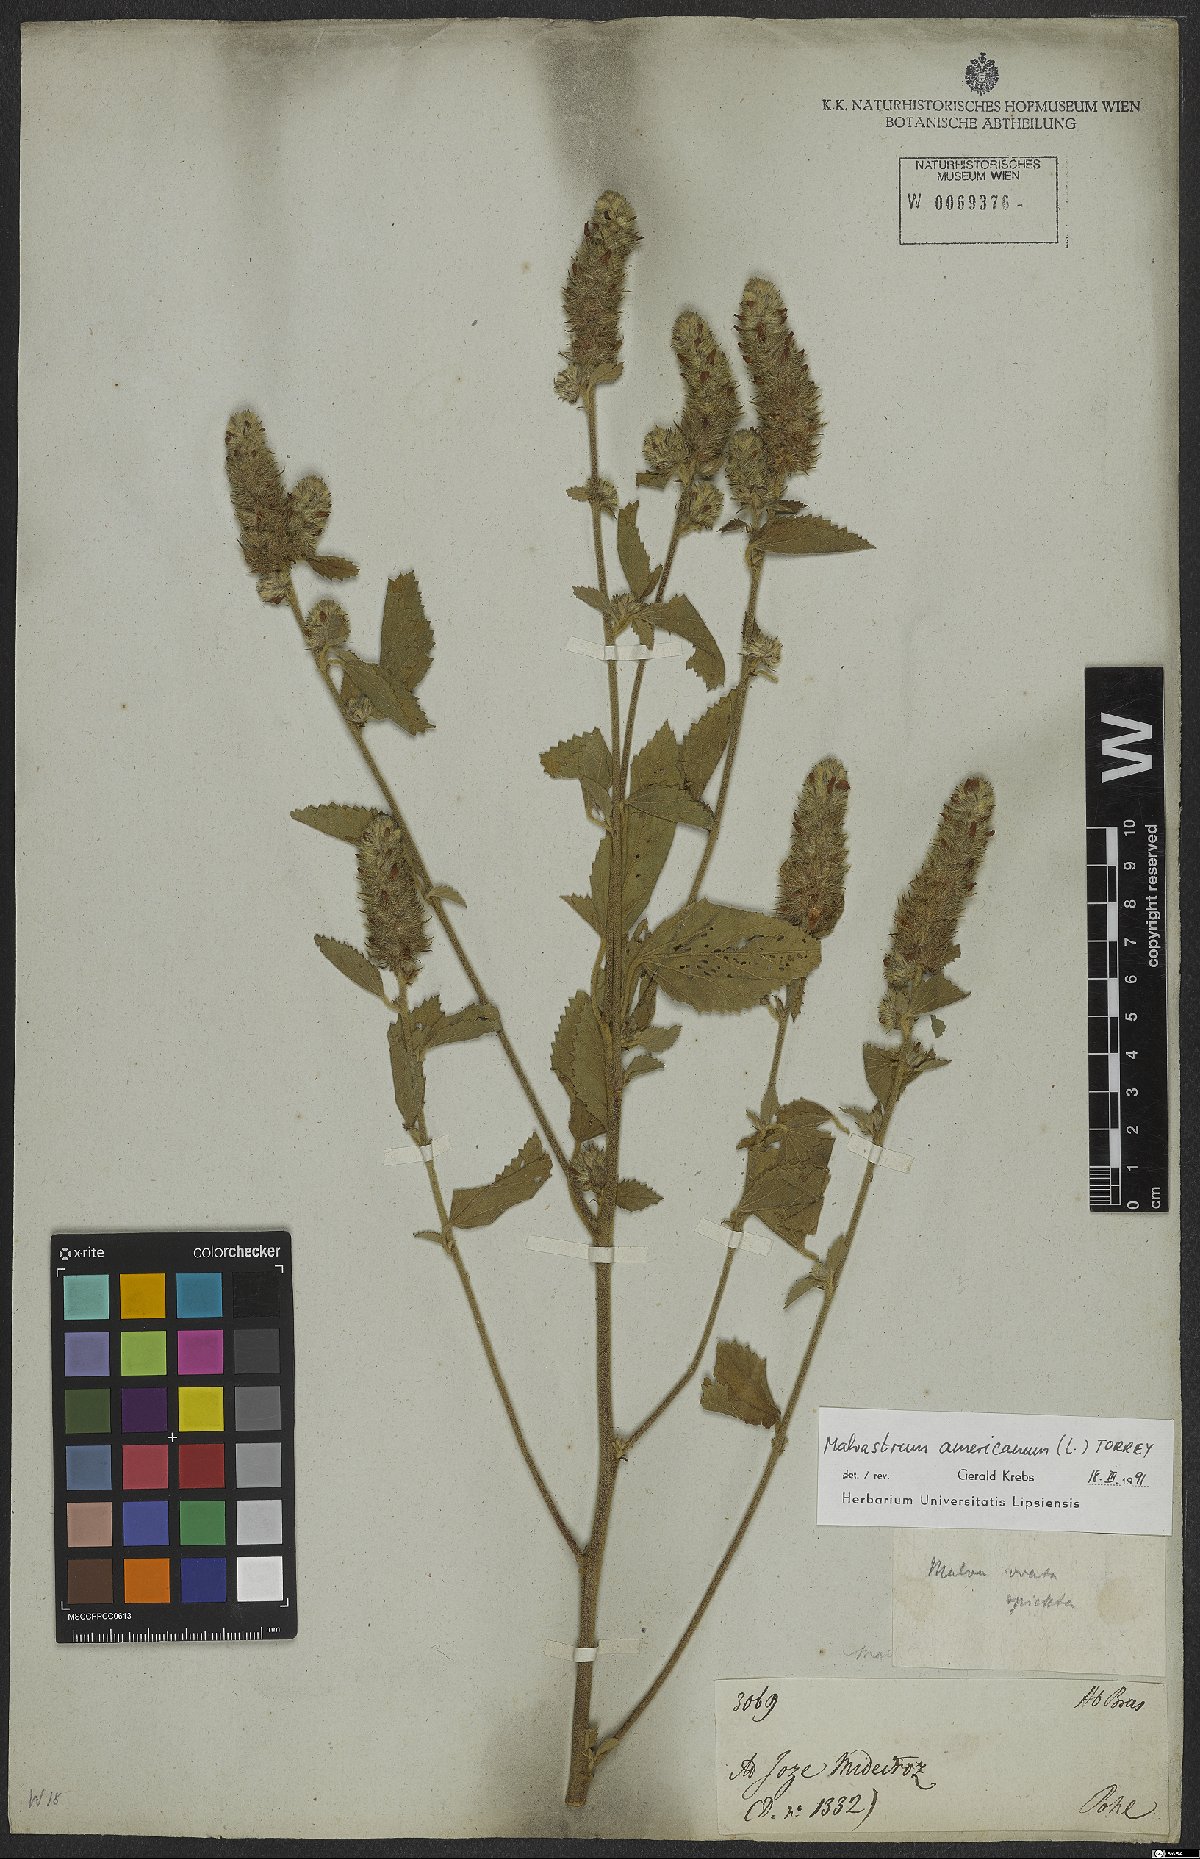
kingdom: Plantae
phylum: Tracheophyta
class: Magnoliopsida
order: Malvales
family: Malvaceae
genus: Malvastrum
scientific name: Malvastrum americanum
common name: Spiked malvastrum
